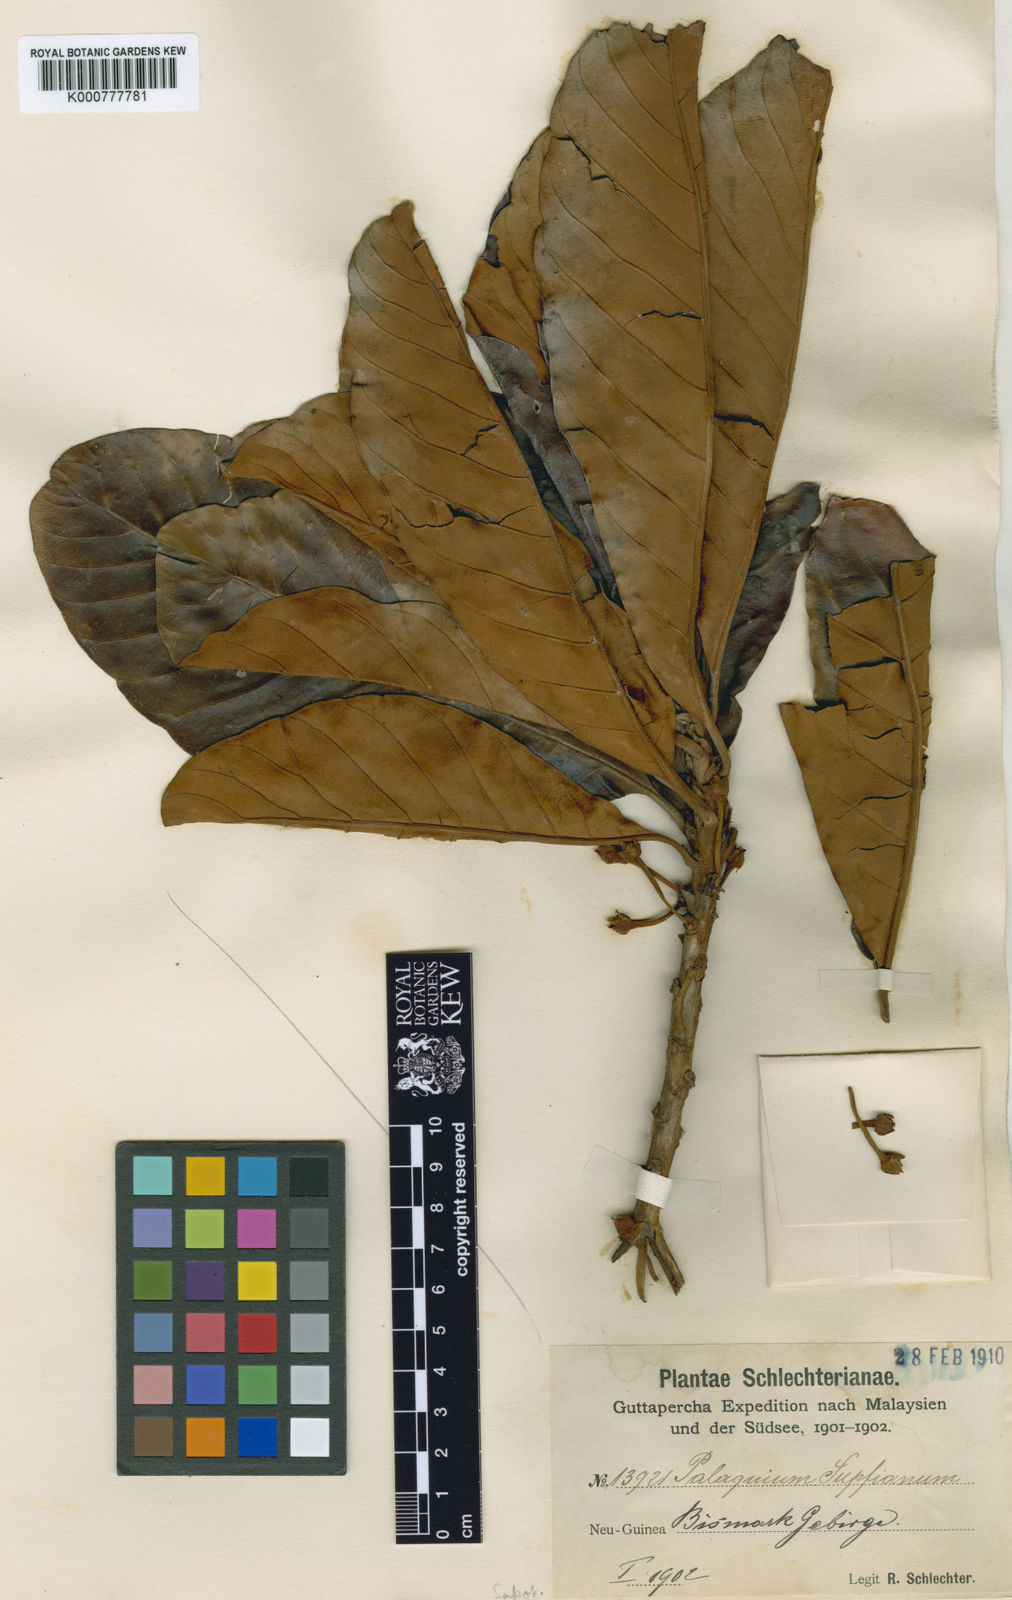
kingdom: Plantae
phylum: Tracheophyta
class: Magnoliopsida
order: Ericales
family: Sapotaceae
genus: Palaquium
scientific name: Palaquium supfianum
